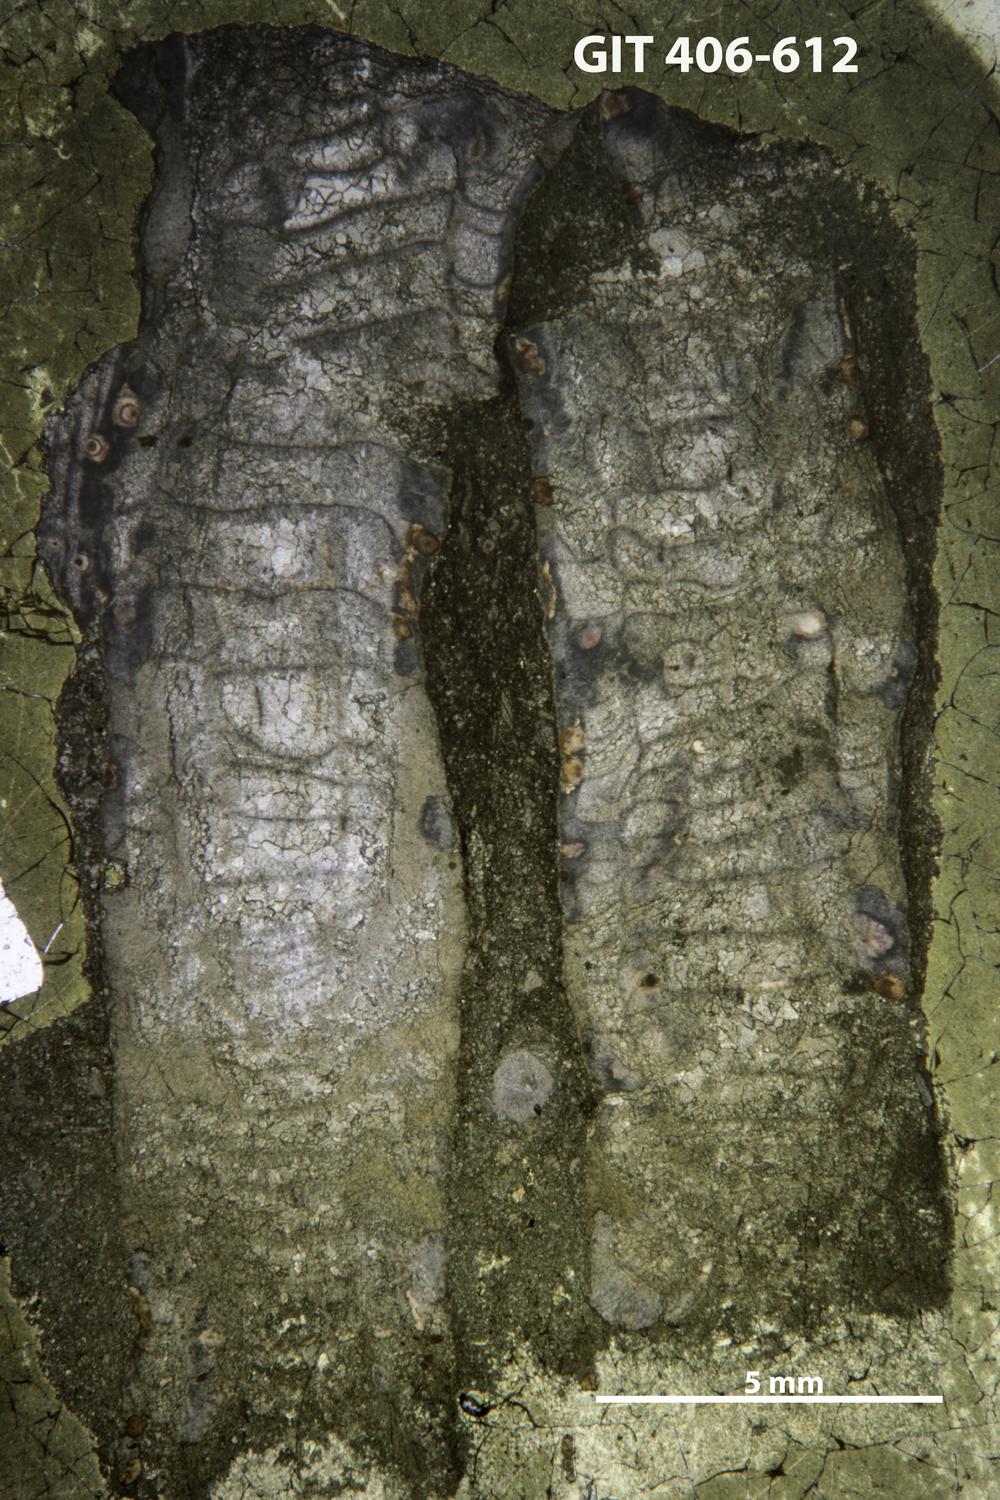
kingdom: Animalia
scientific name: Animalia
